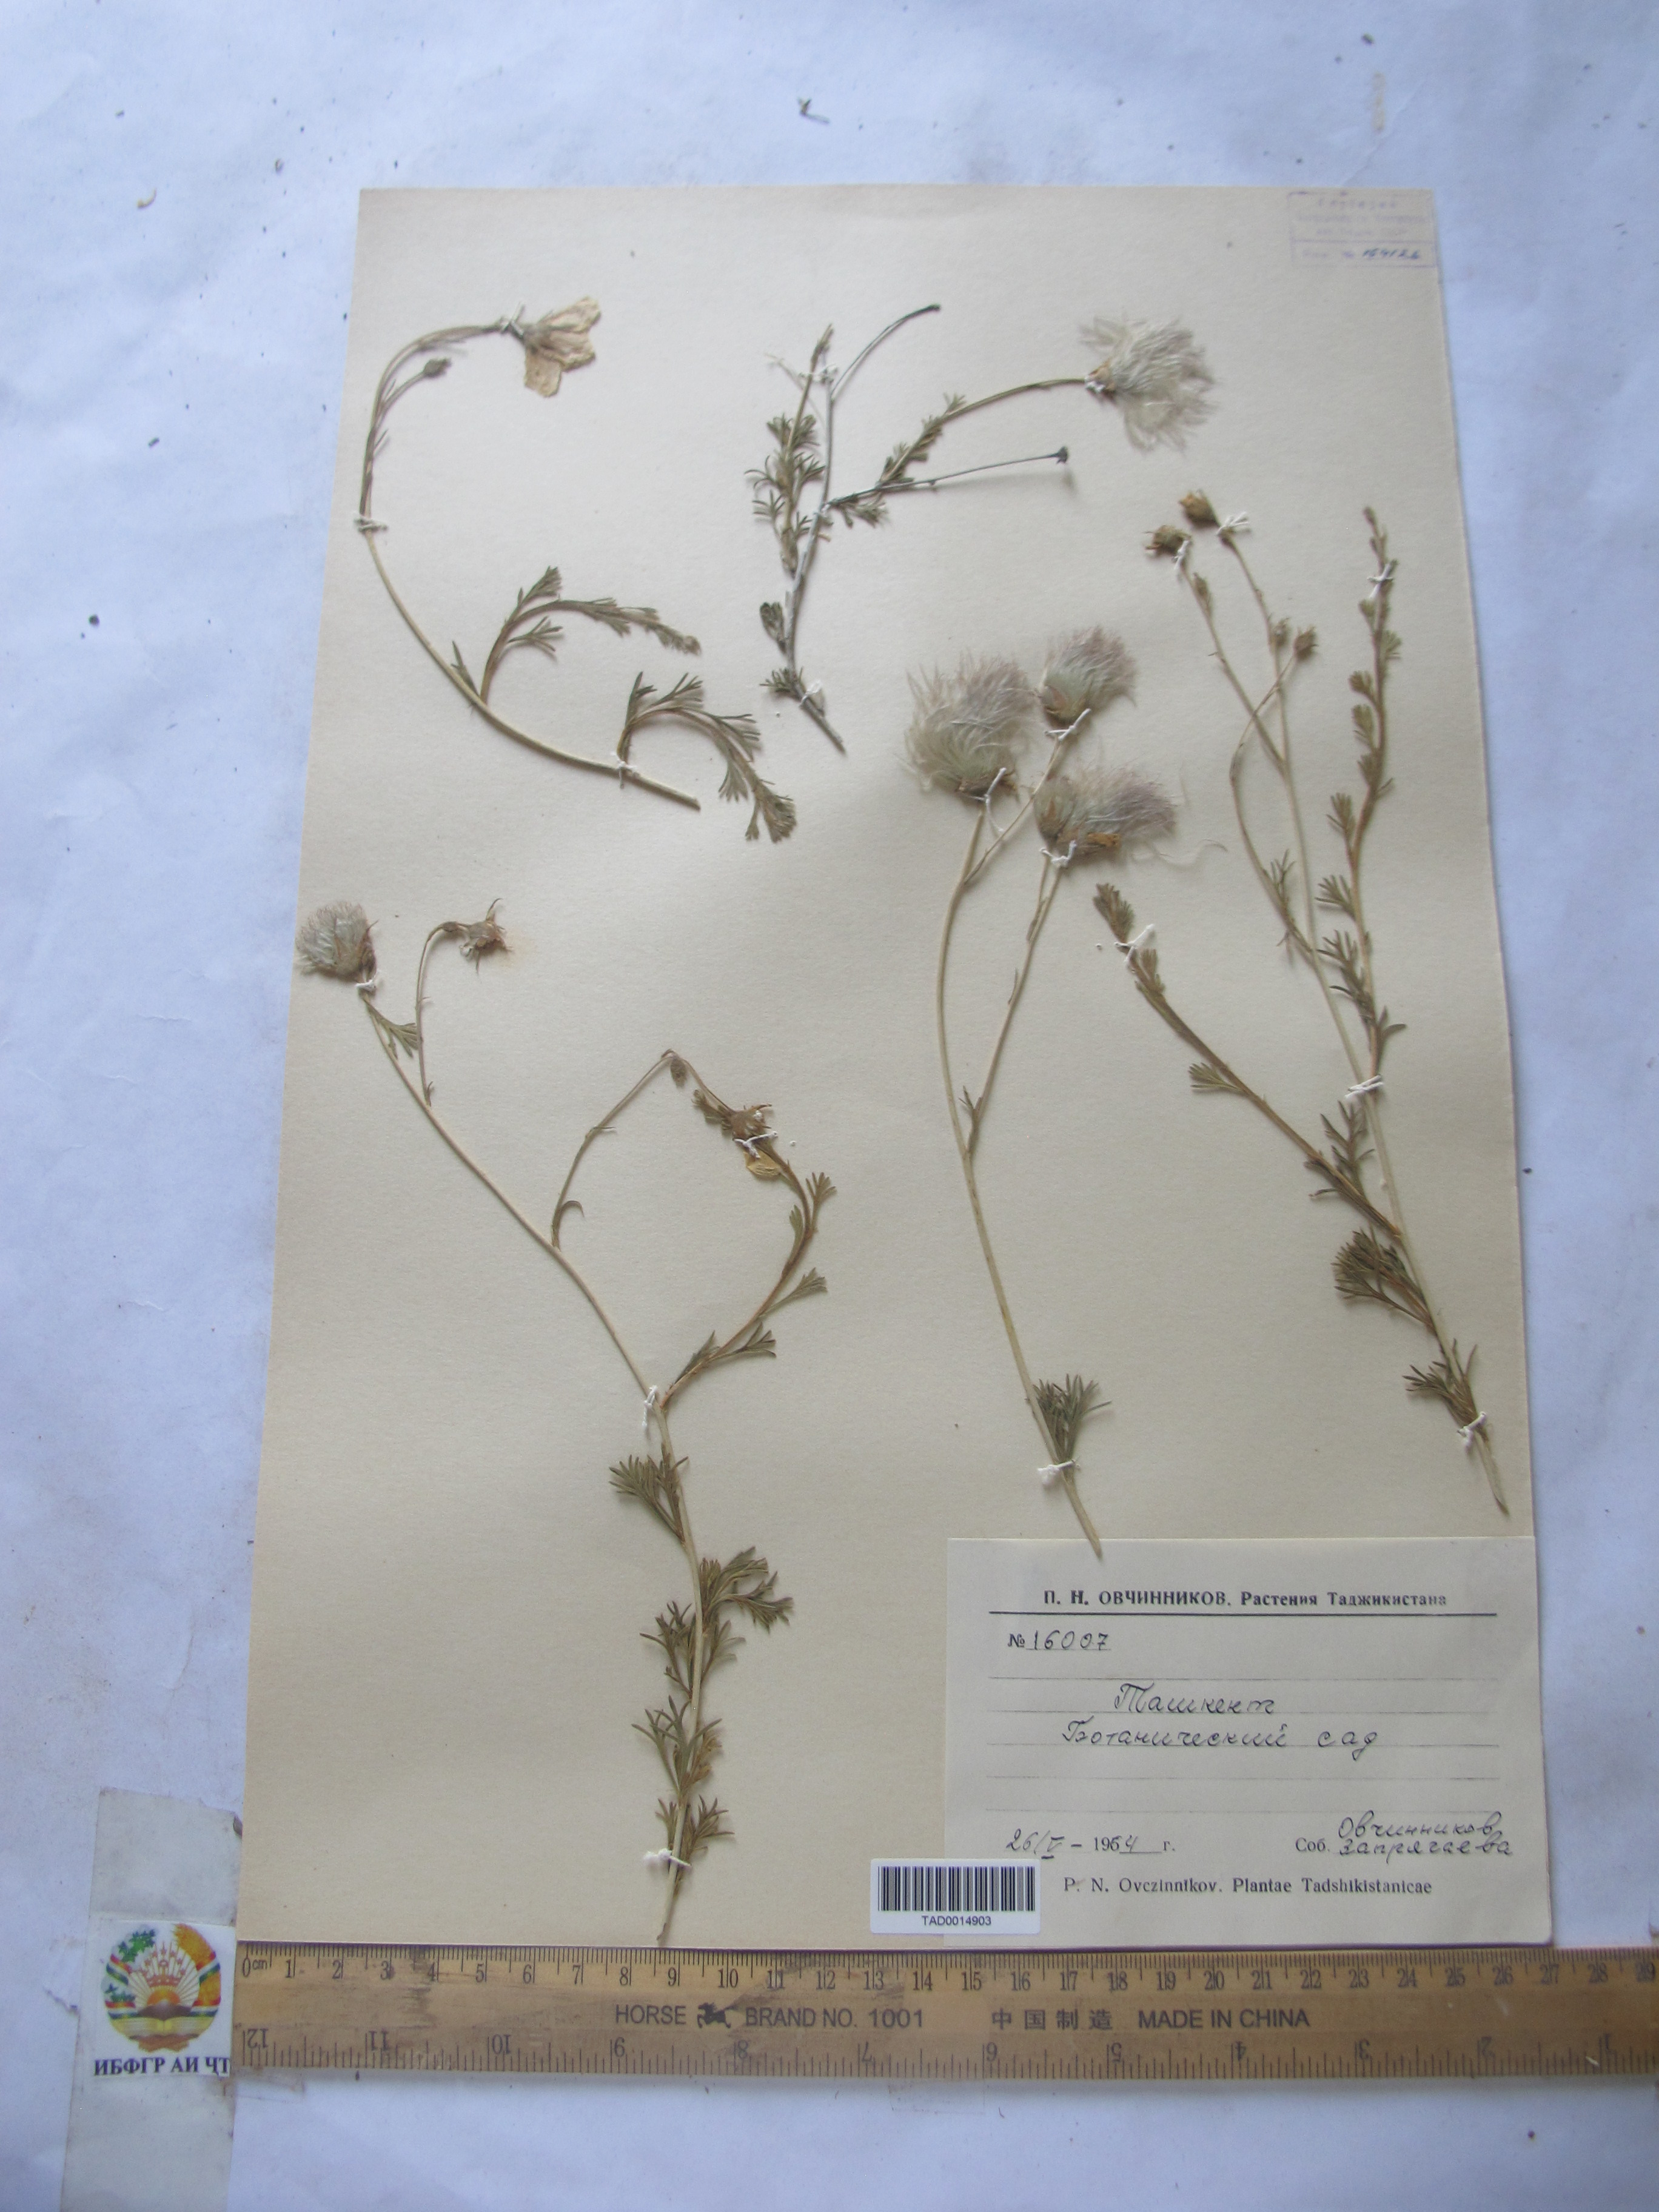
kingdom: Plantae
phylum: Tracheophyta
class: Magnoliopsida
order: Ranunculales
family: Ranunculaceae
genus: Ranunculus
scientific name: Ranunculus rufosepalus
